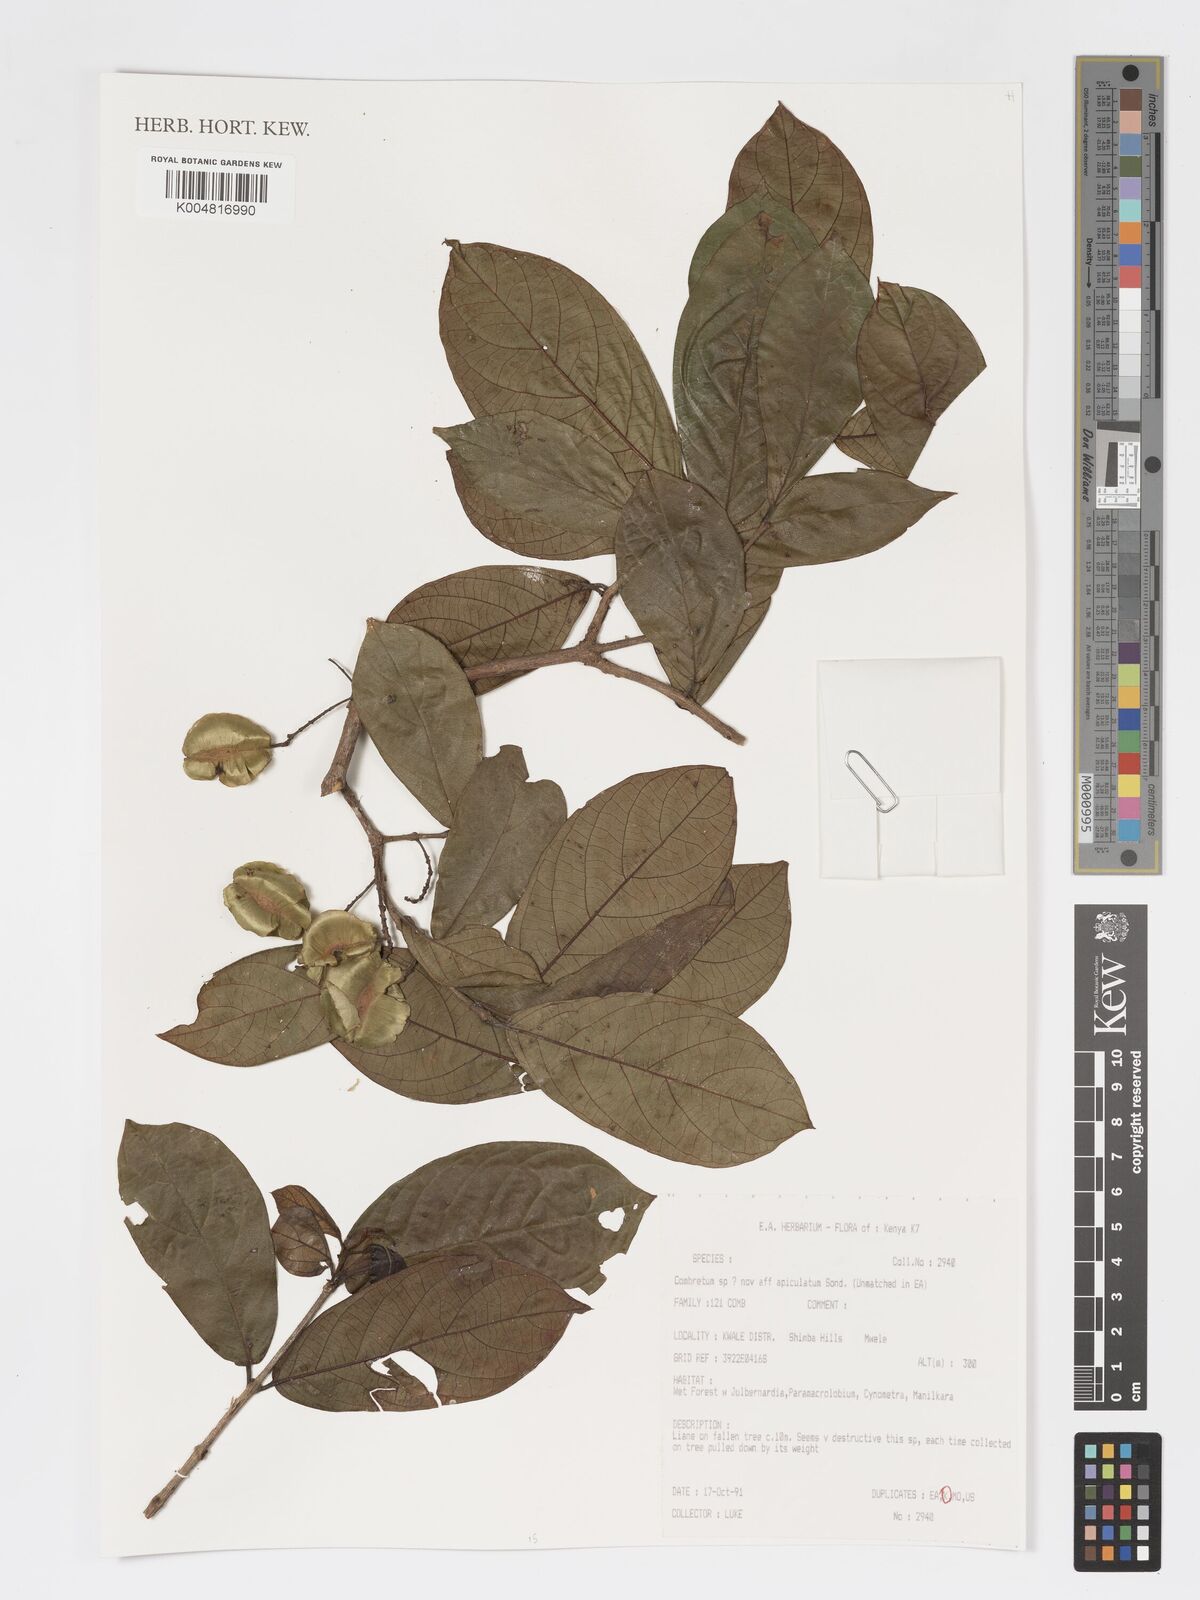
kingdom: Plantae
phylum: Tracheophyta
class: Magnoliopsida
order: Myrtales
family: Combretaceae
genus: Combretum
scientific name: Combretum apiculatum
